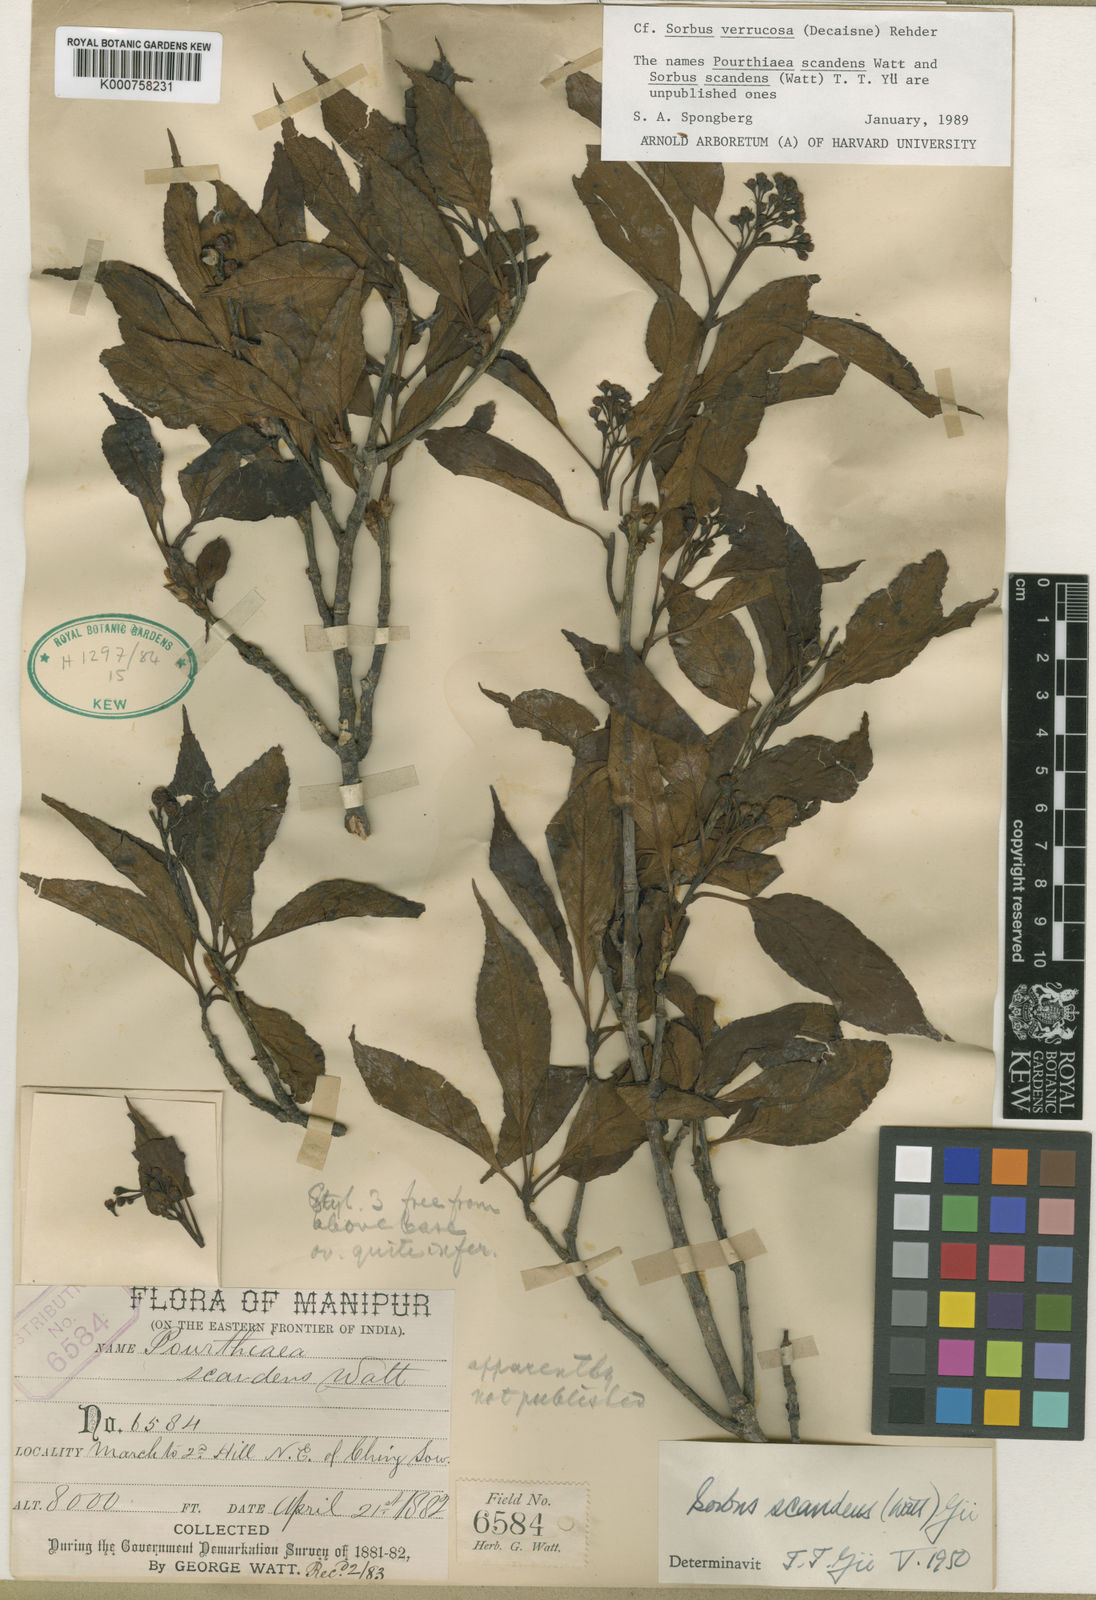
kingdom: Plantae
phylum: Tracheophyta
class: Magnoliopsida
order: Rosales
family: Rosaceae
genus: Micromeles
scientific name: Micromeles cuspidata
